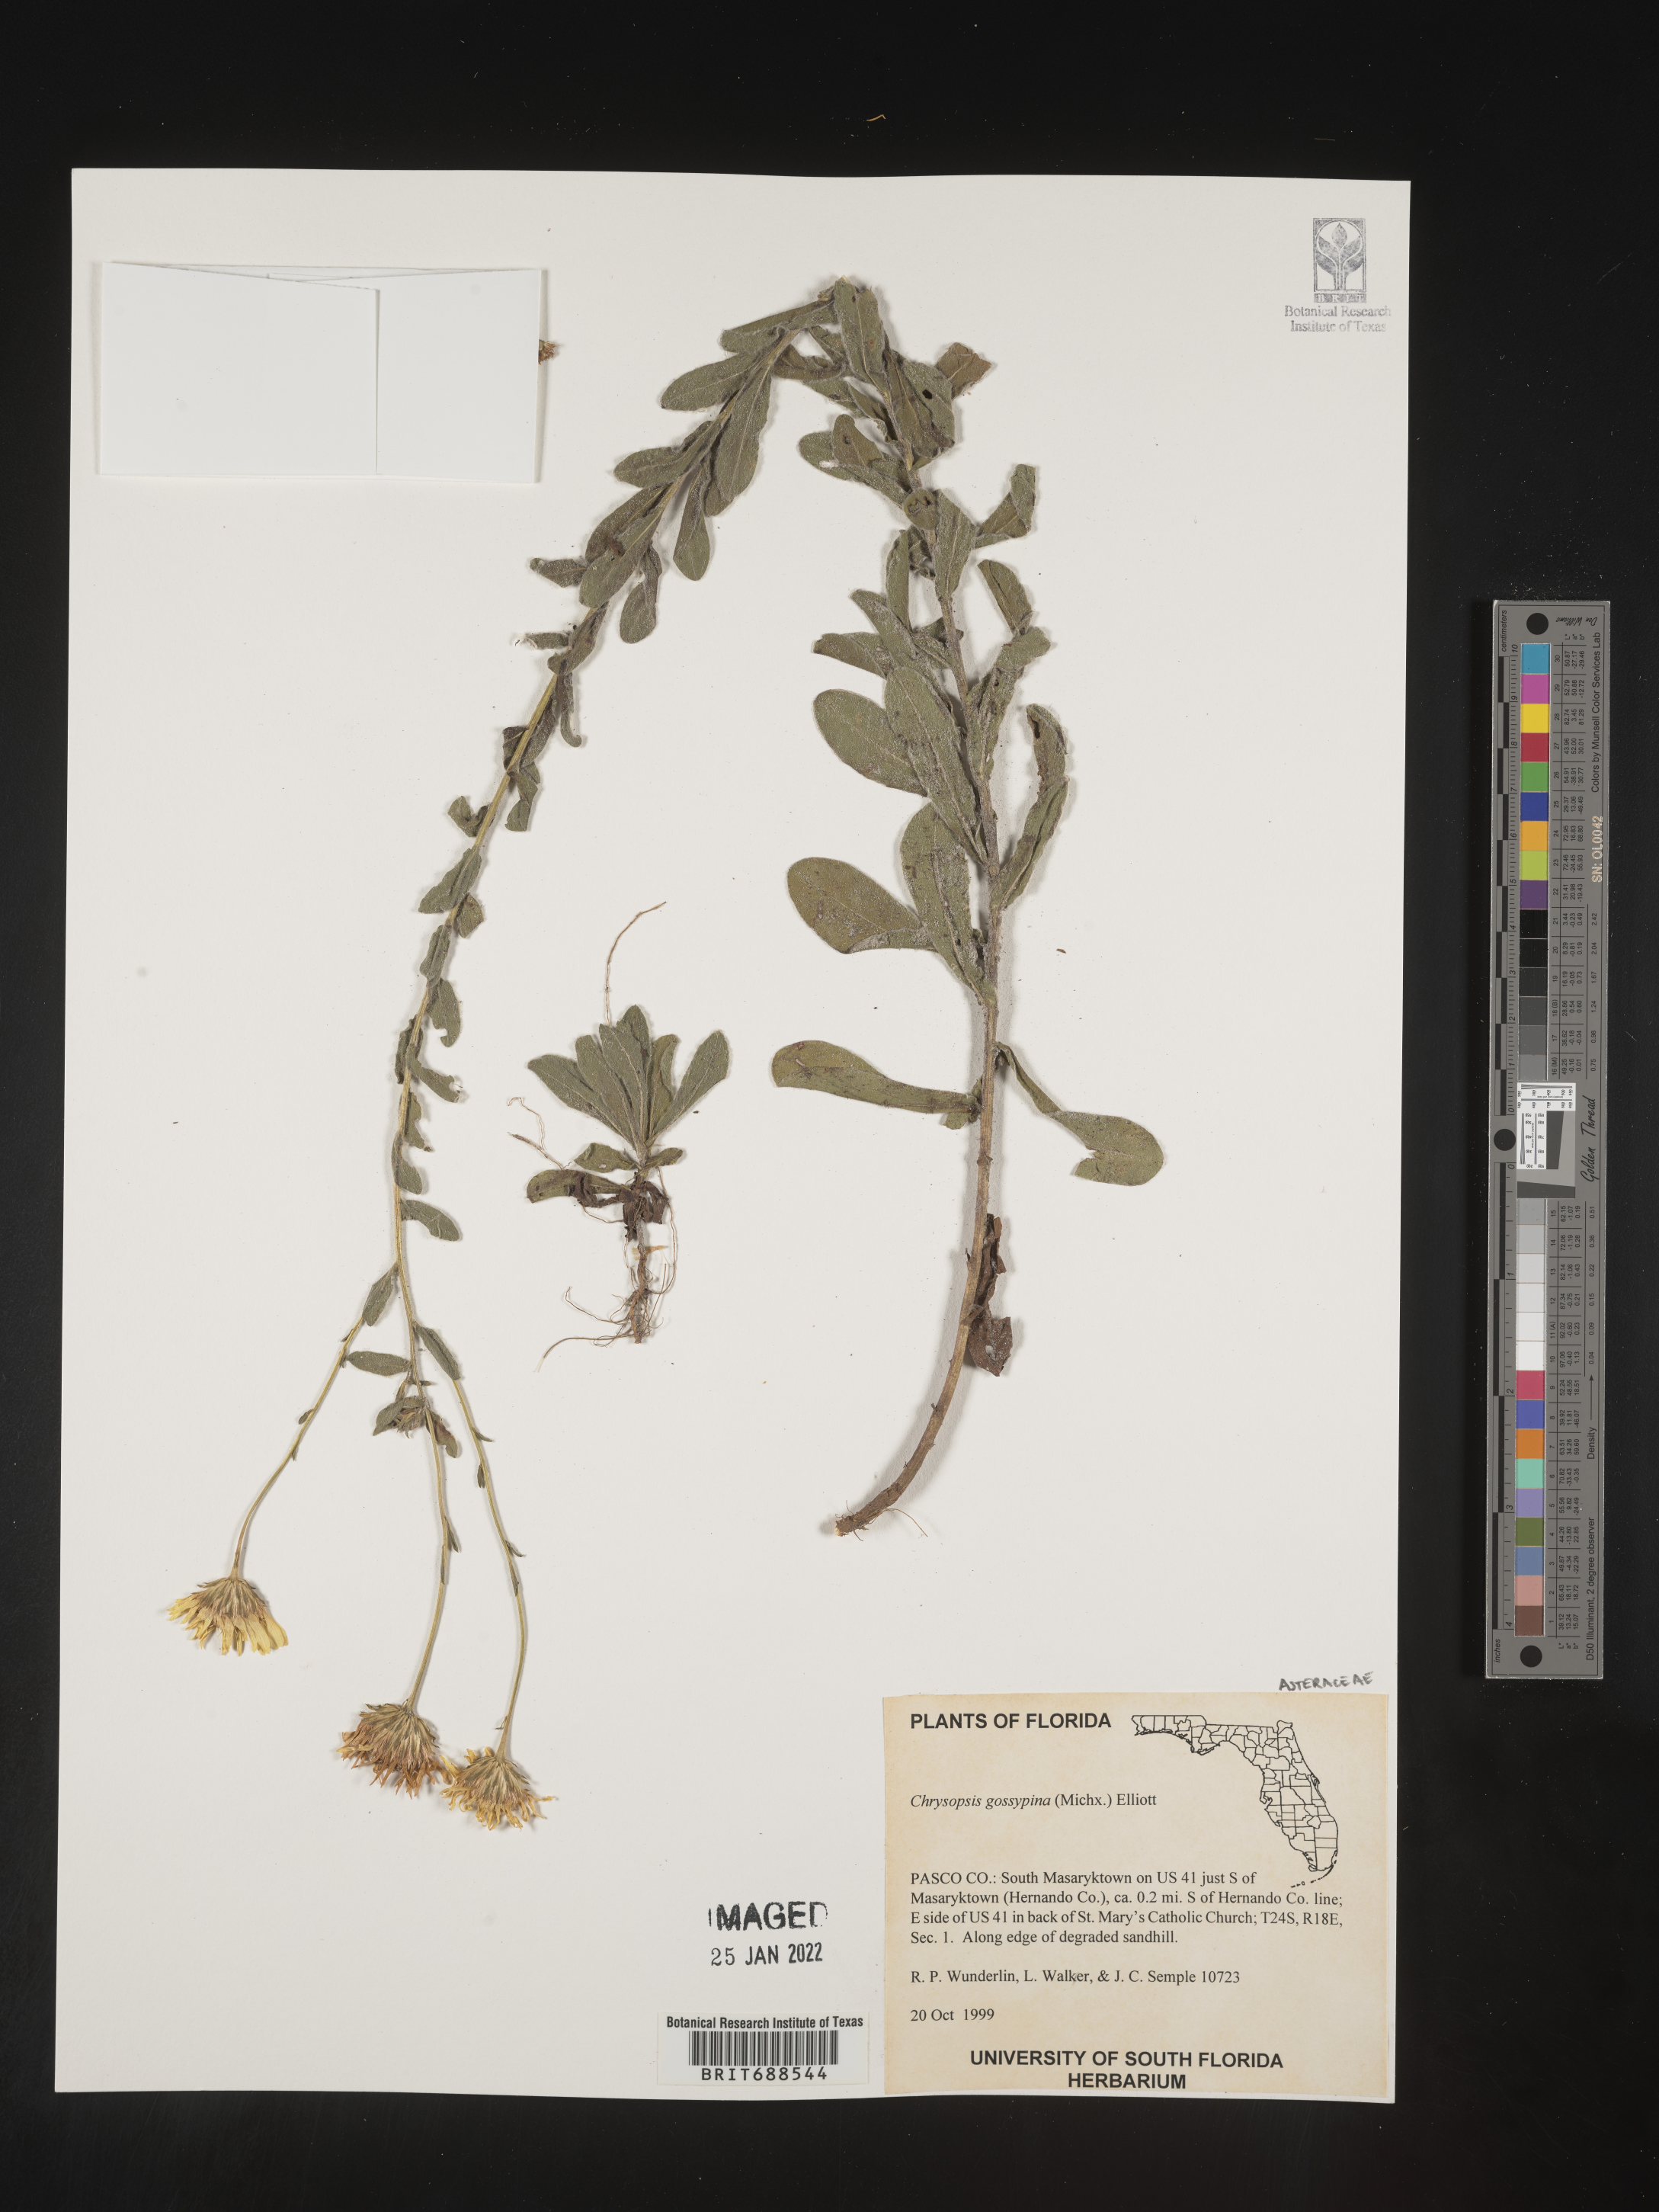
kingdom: Plantae
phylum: Tracheophyta
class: Magnoliopsida
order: Asterales
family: Asteraceae
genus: Chrysopsis
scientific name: Chrysopsis gossypina
